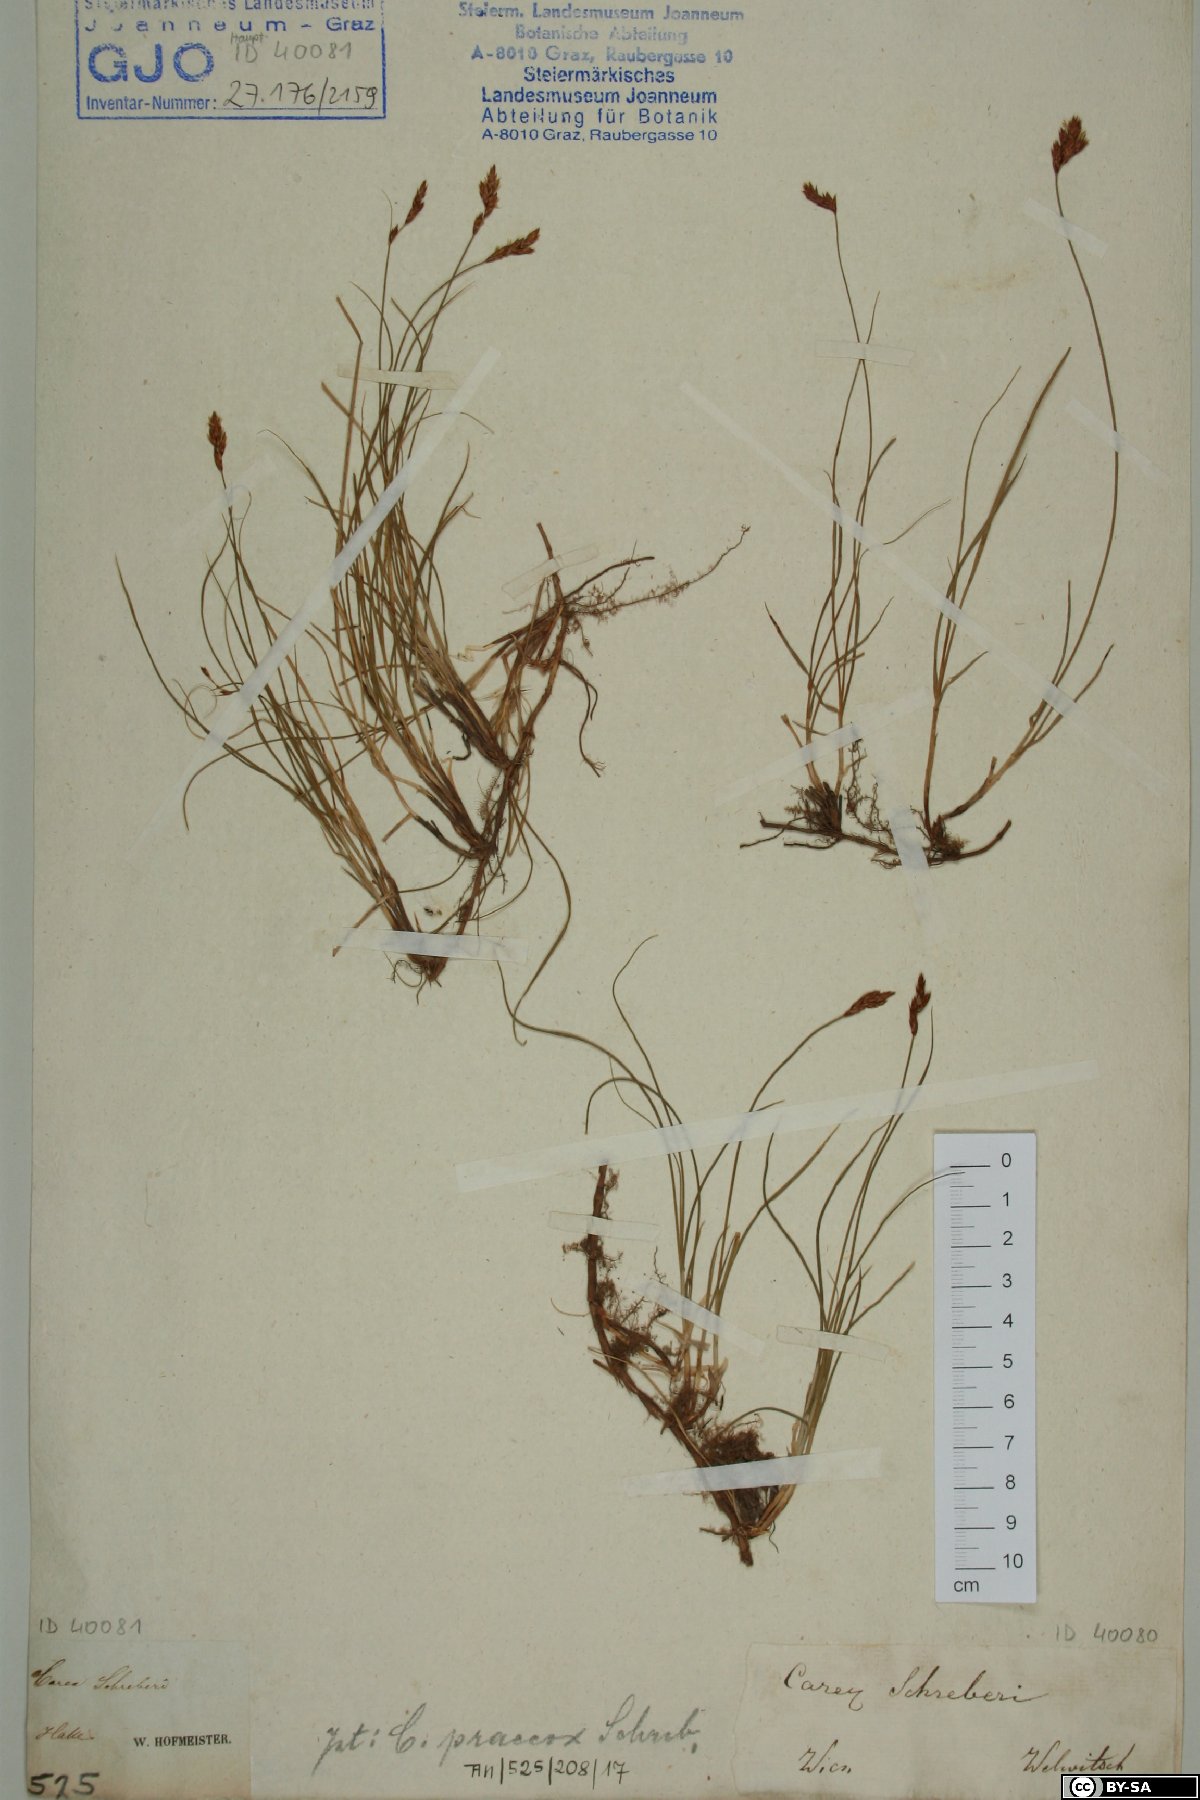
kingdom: Plantae
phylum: Tracheophyta
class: Liliopsida
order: Poales
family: Cyperaceae
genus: Carex
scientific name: Carex praecox
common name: Early sedge
